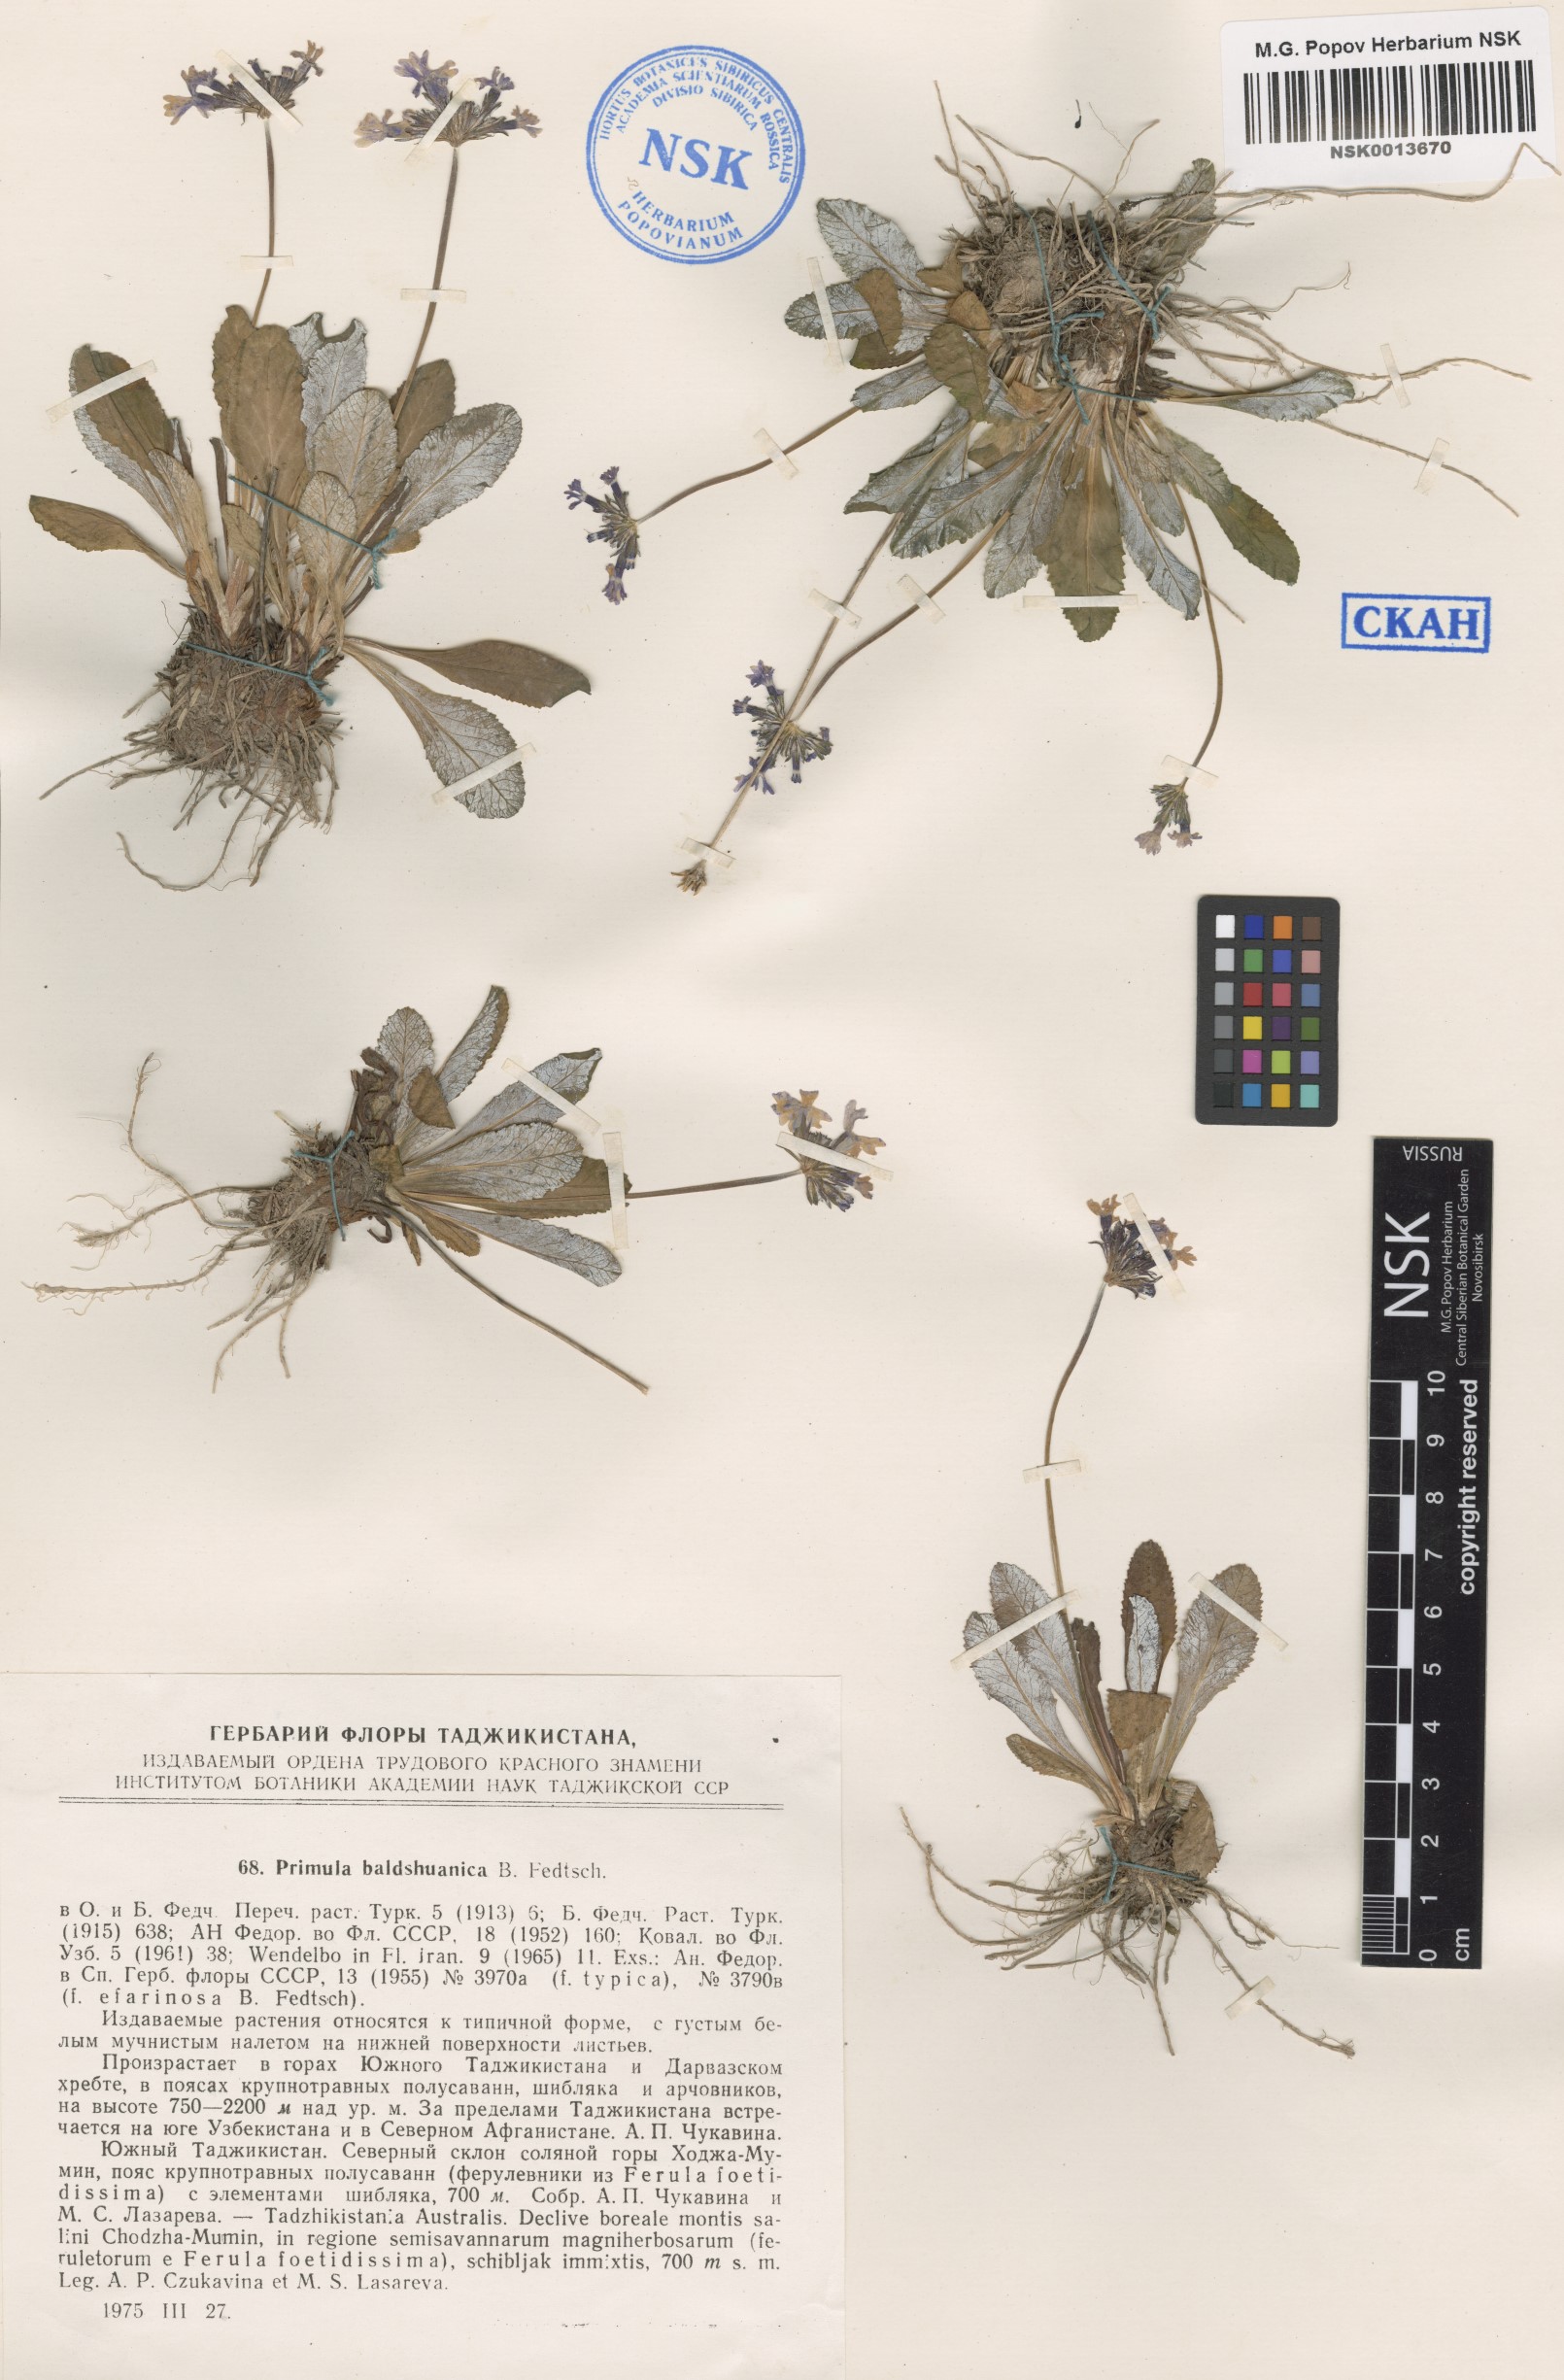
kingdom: Plantae
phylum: Tracheophyta
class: Magnoliopsida
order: Ericales
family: Primulaceae
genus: Primula
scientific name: Primula baldshuanica
